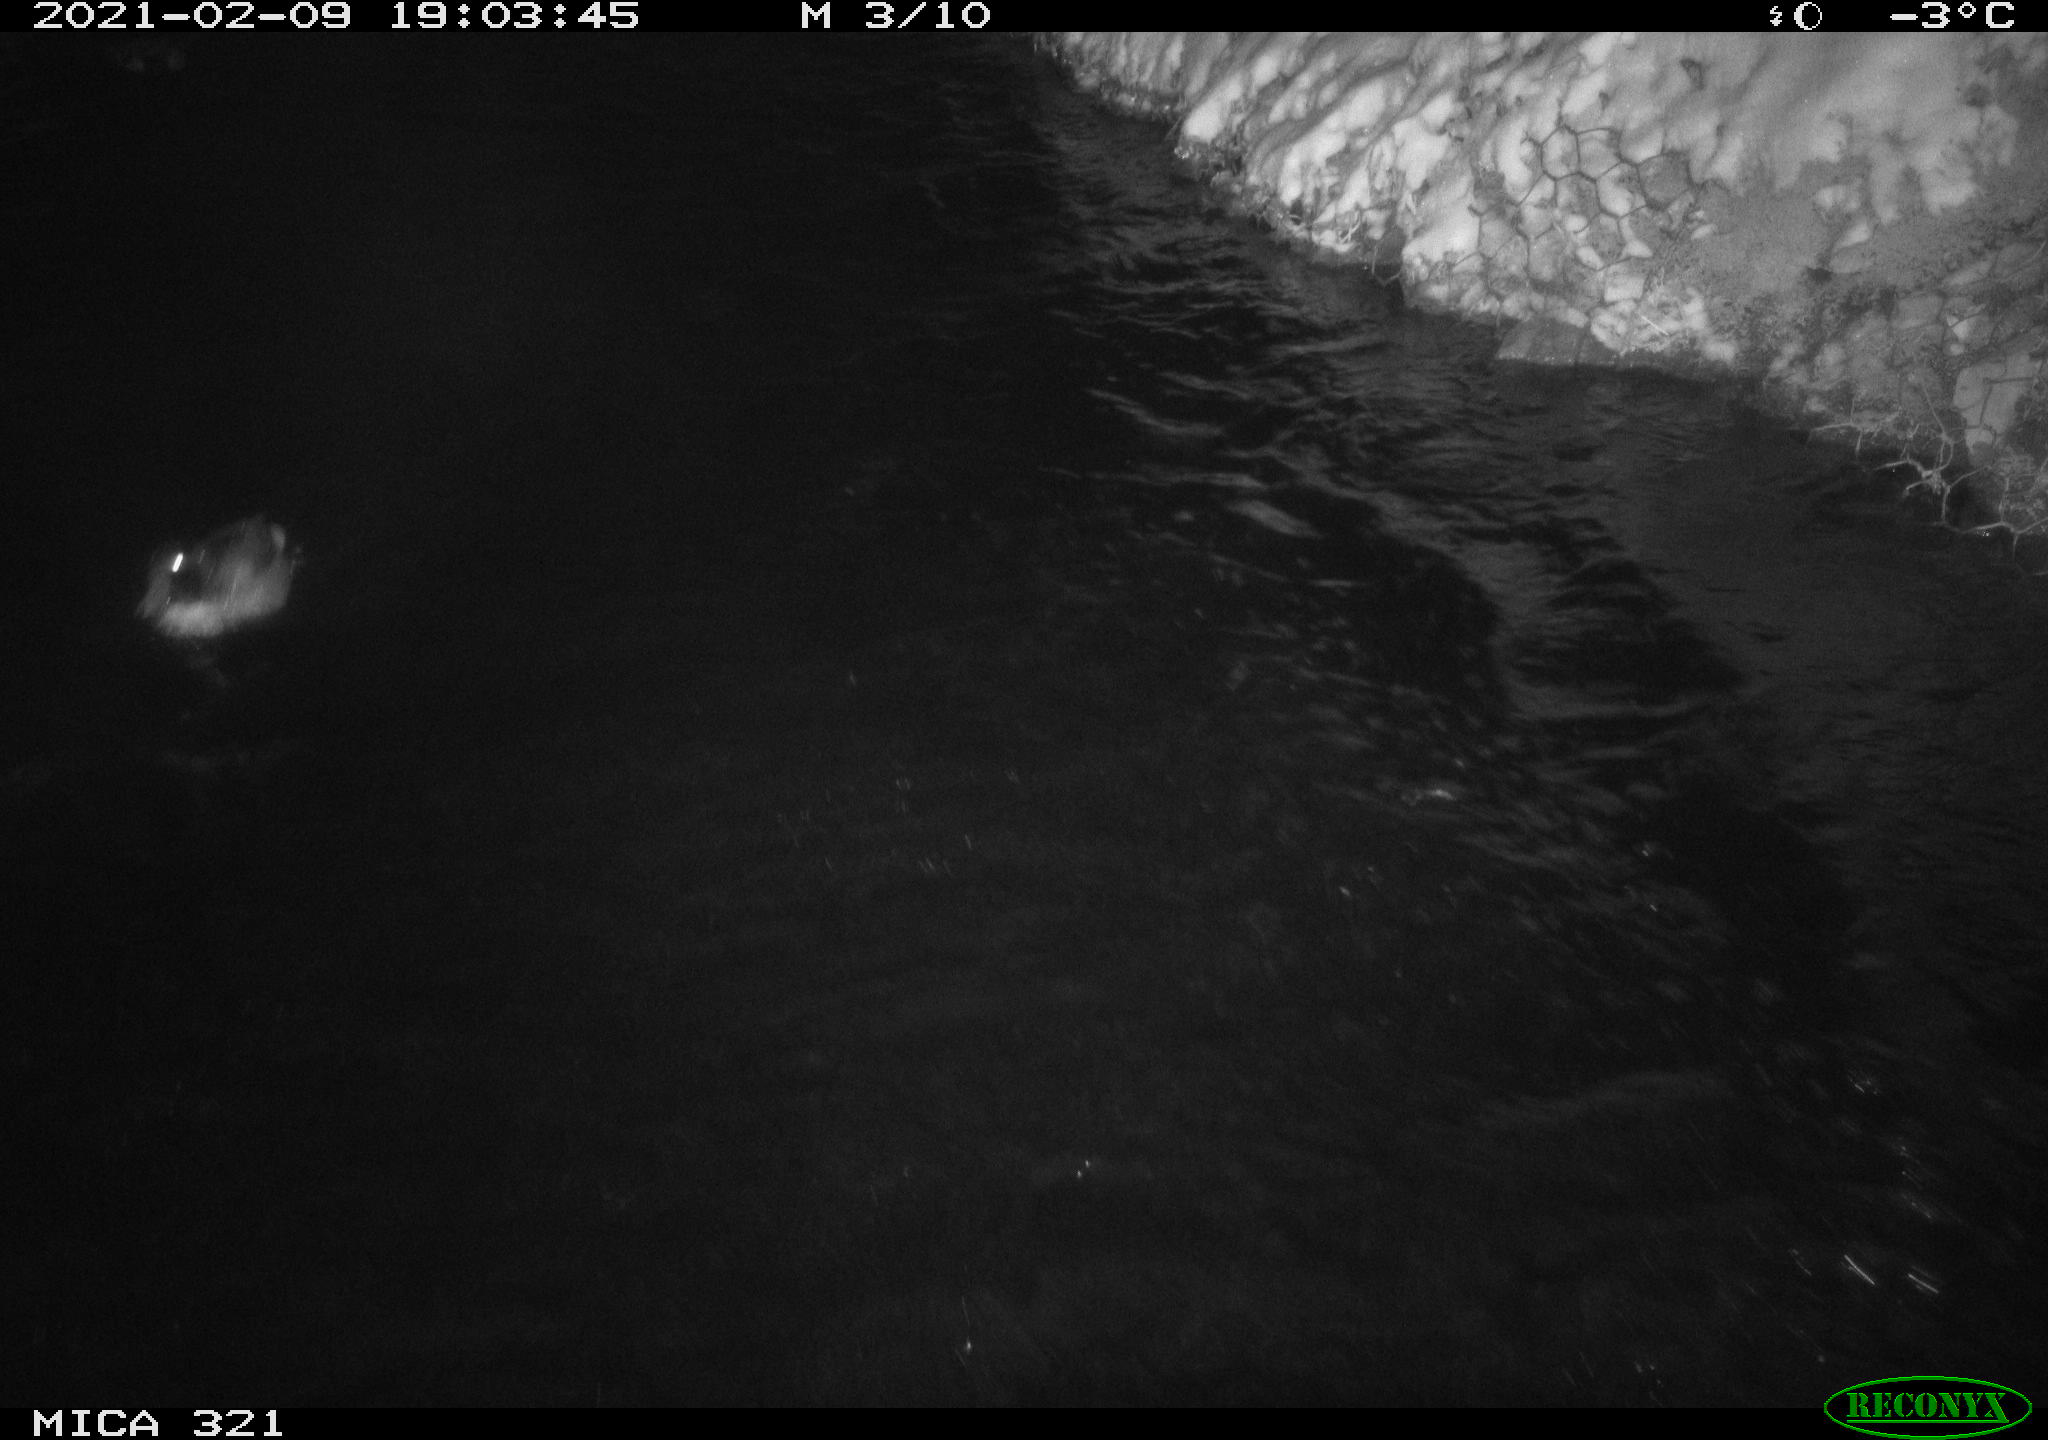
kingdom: Animalia
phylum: Chordata
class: Aves
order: Anseriformes
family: Anatidae
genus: Anas
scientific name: Anas platyrhynchos
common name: Mallard
